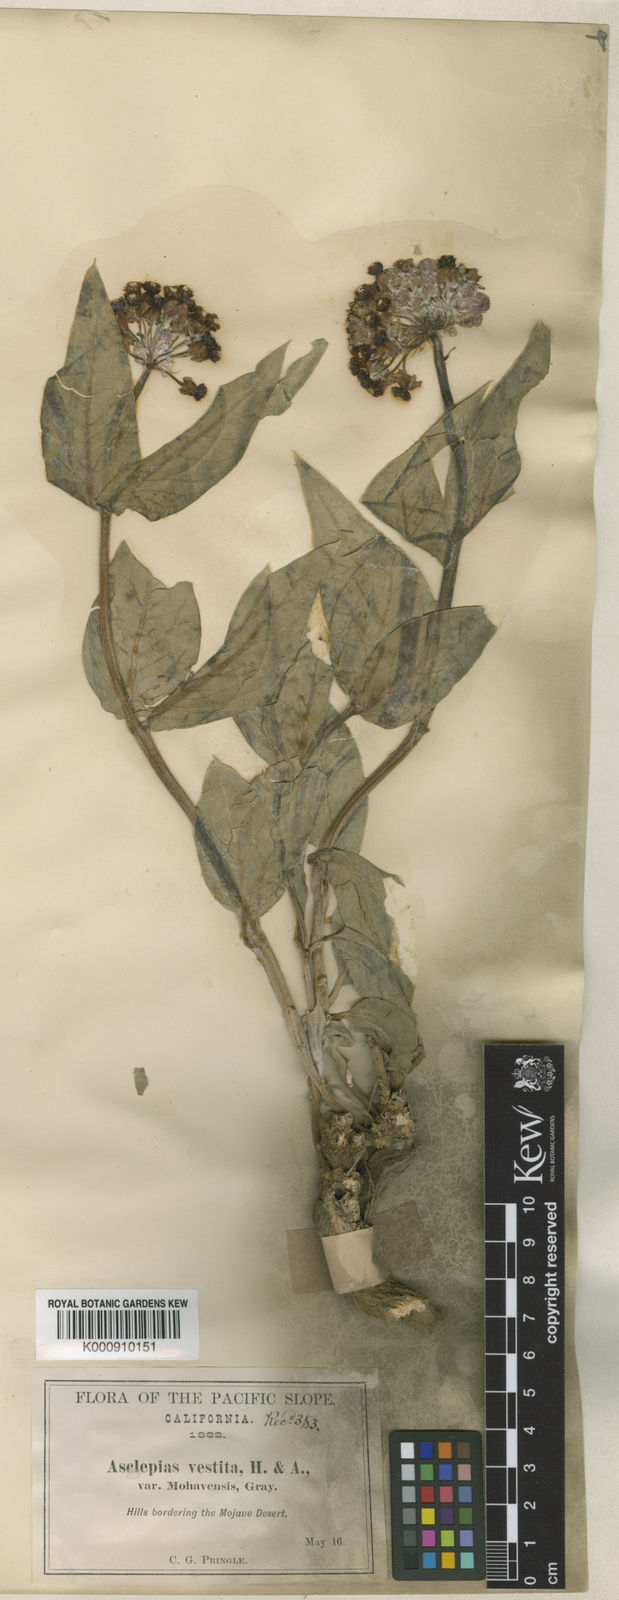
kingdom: Plantae
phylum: Tracheophyta
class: Magnoliopsida
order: Gentianales
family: Apocynaceae
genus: Asclepias
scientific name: Asclepias vestita
